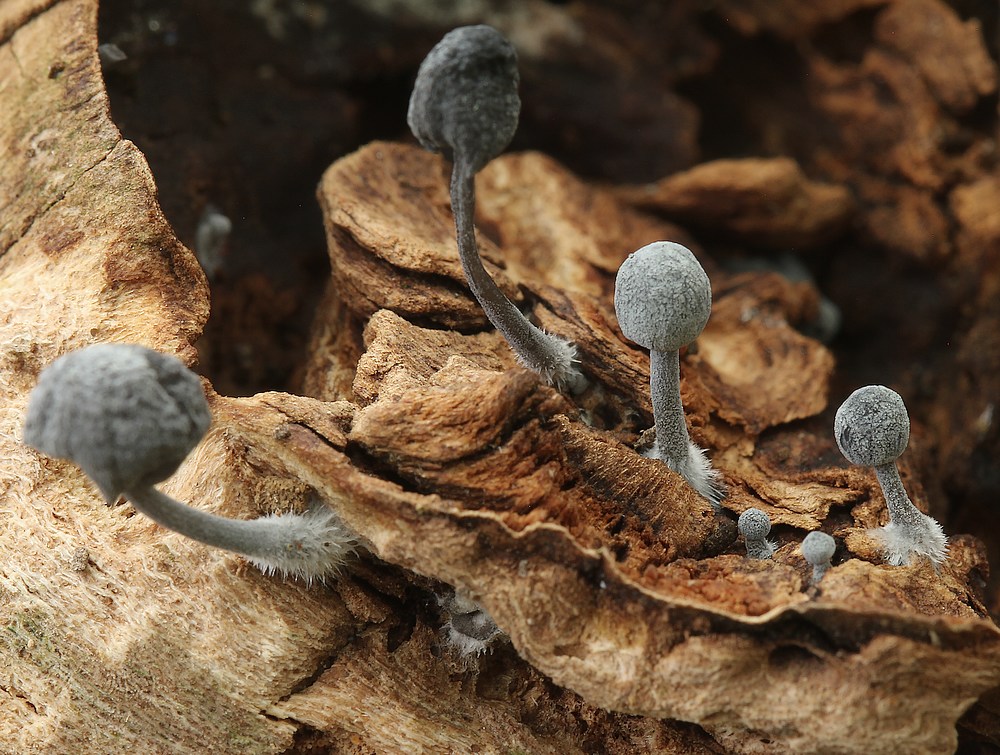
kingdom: Fungi
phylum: Basidiomycota
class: Agaricomycetes
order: Agaricales
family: Mycenaceae
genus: Mycena
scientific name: Mycena pseudocorticola
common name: gråblå bark-huesvamp
